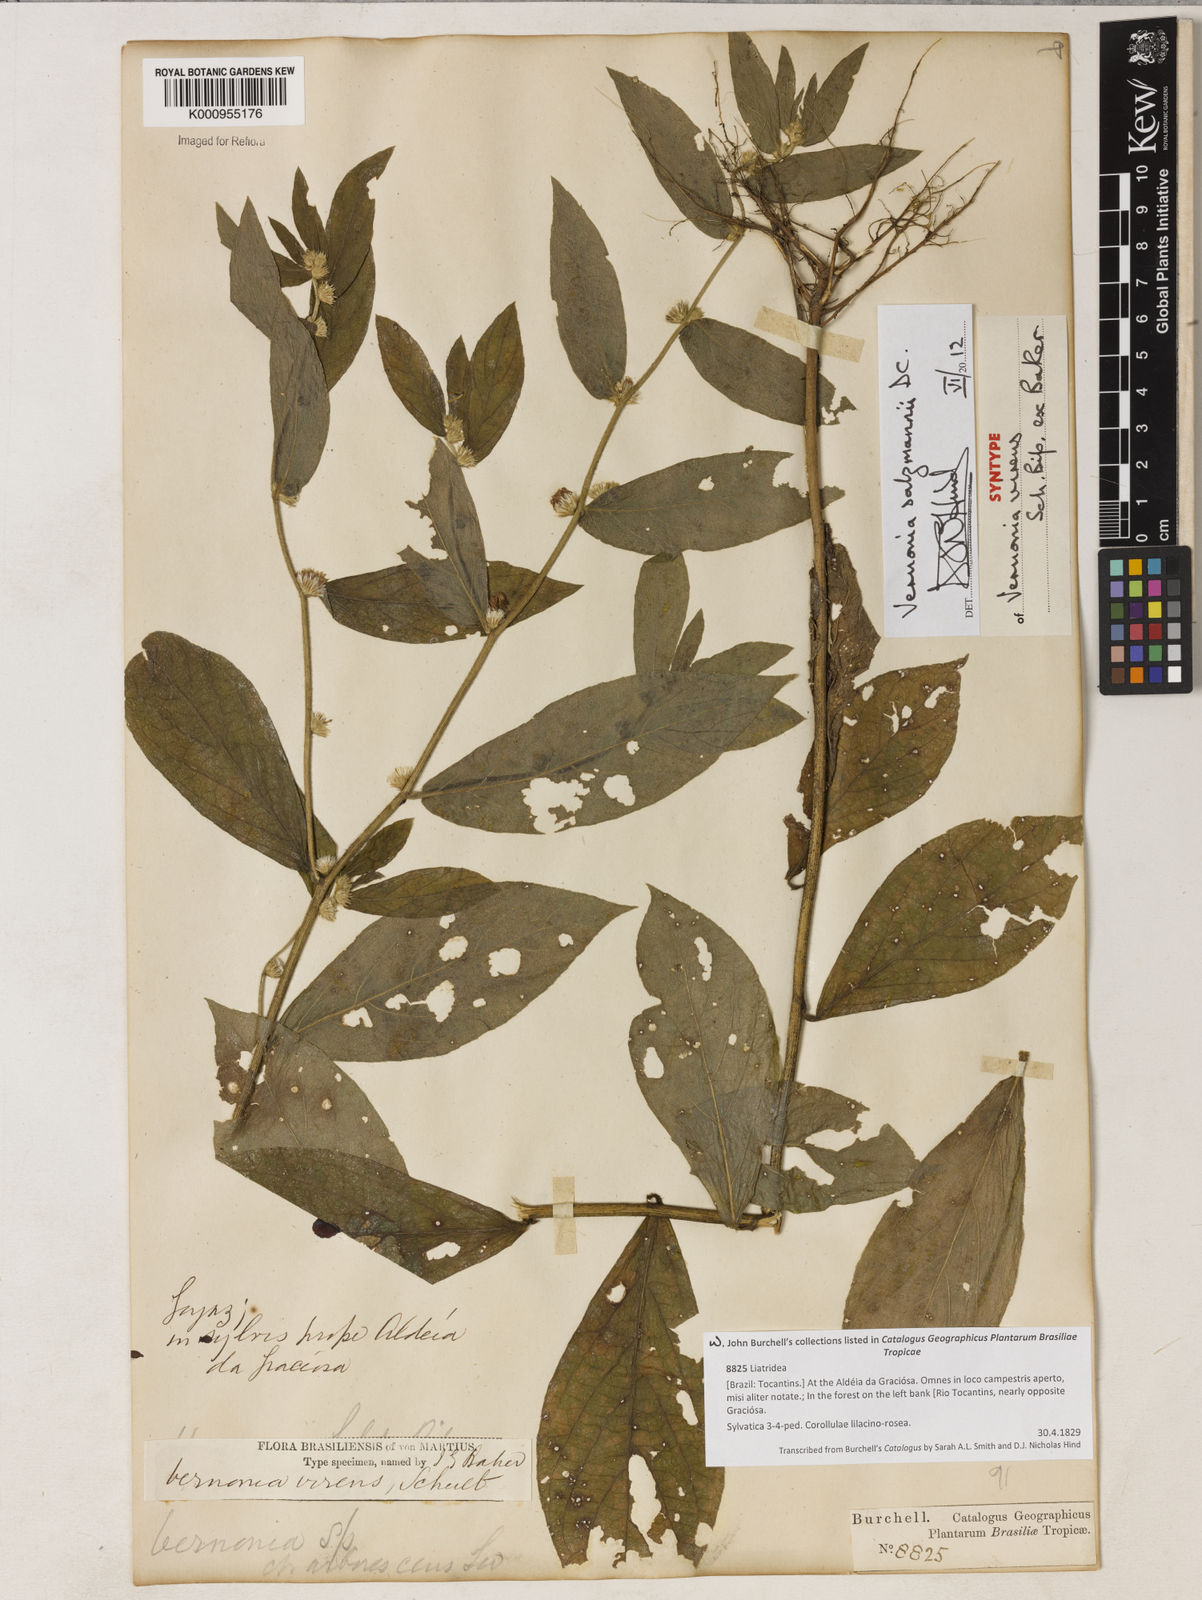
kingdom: Plantae
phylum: Tracheophyta
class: Magnoliopsida
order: Asterales
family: Asteraceae
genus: Lepidaploa
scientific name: Lepidaploa salzmannii
